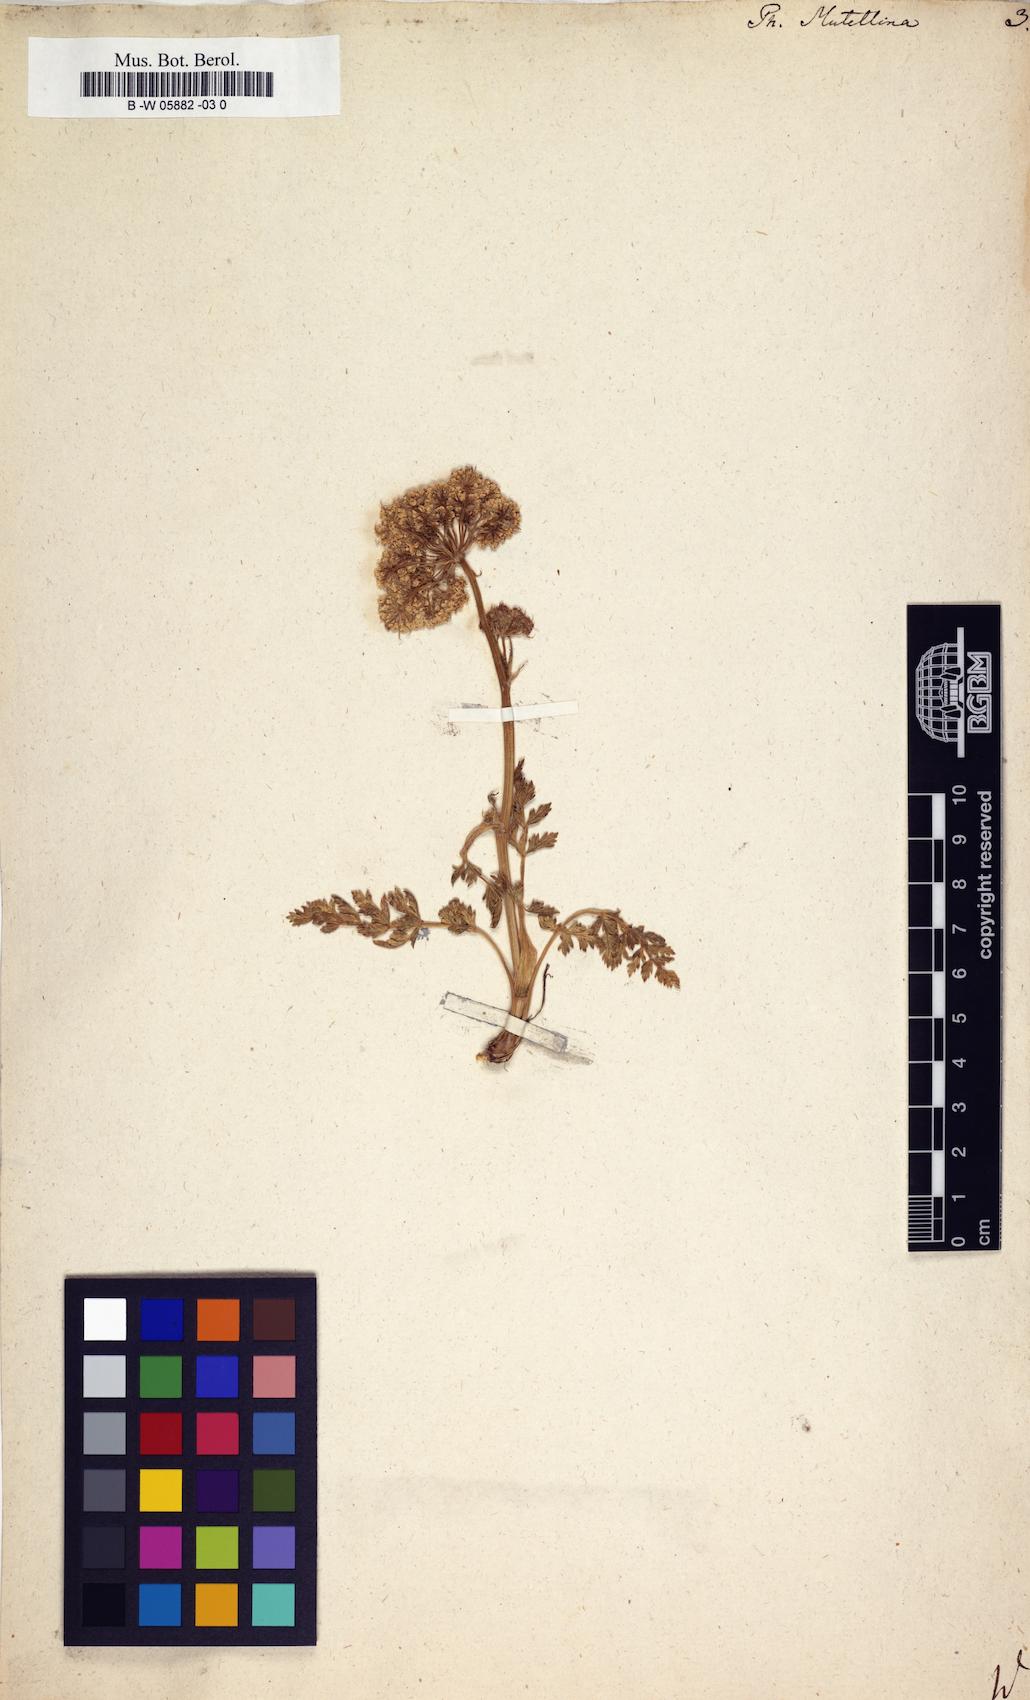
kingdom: Plantae
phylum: Tracheophyta
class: Magnoliopsida
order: Apiales
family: Apiaceae
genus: Mutellina
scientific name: Mutellina adonidifolia
